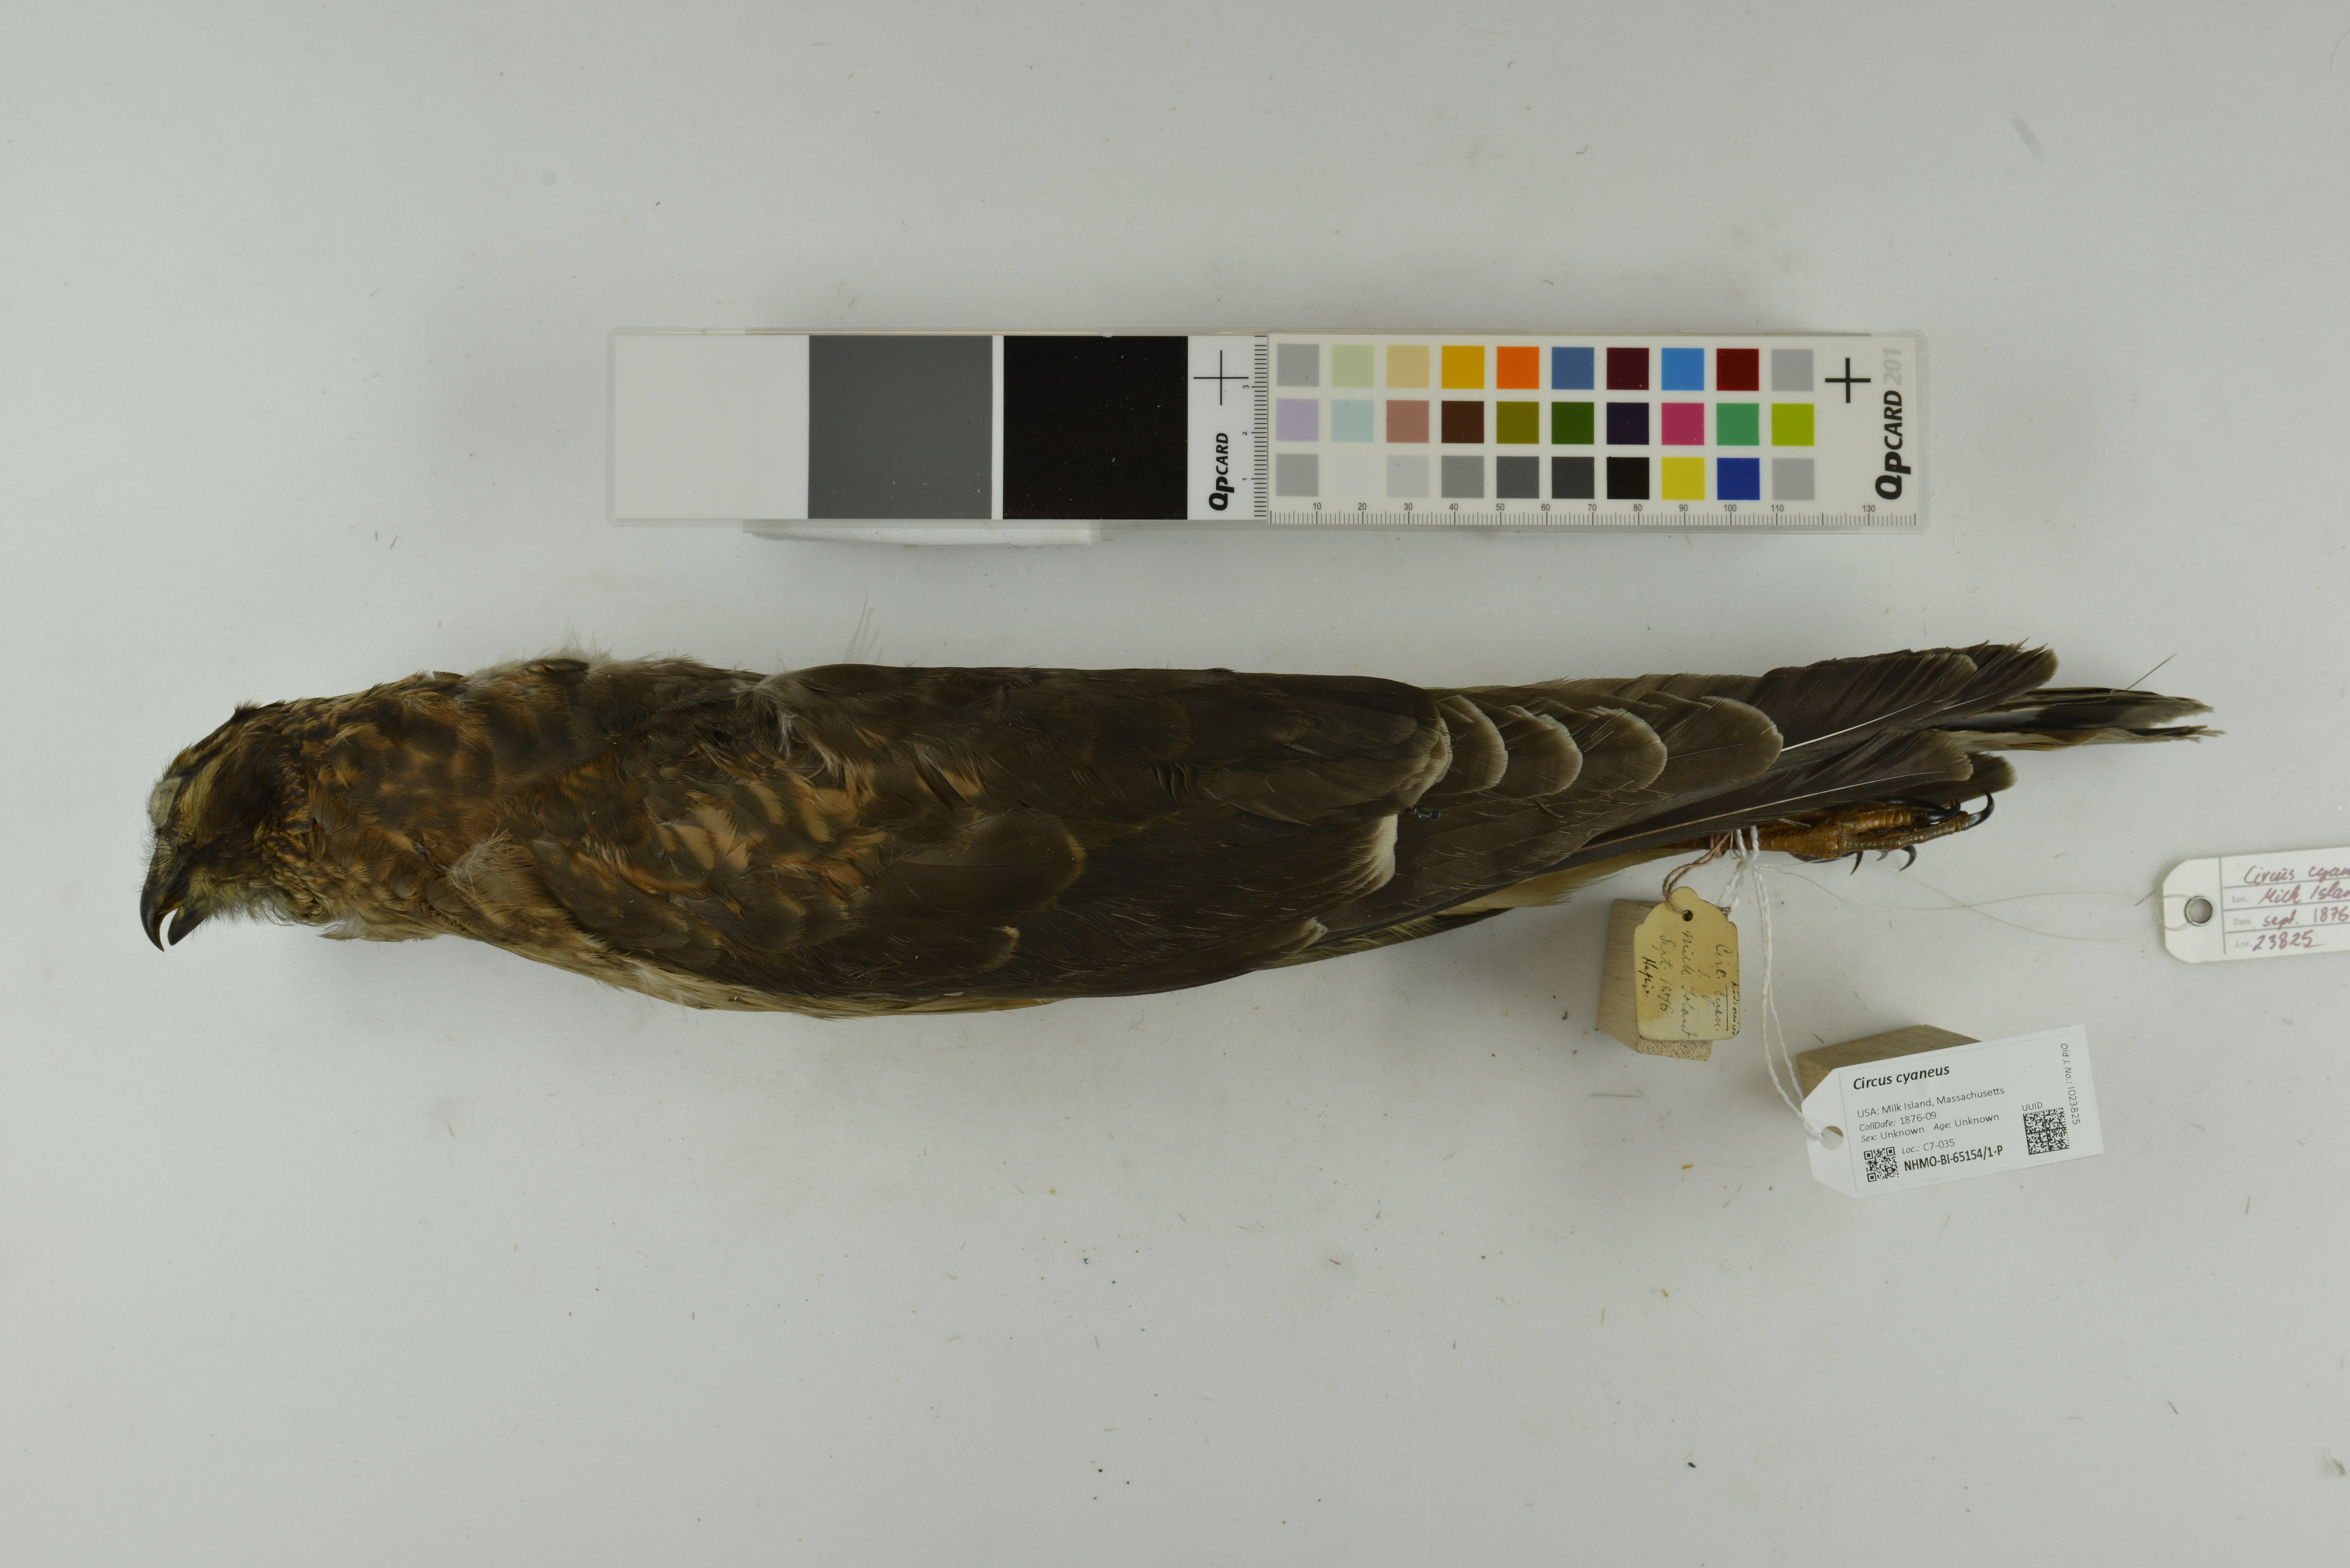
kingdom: Animalia
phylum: Chordata
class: Aves
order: Accipitriformes
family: Accipitridae
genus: Circus
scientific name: Circus cyaneus
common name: Hen harrier
